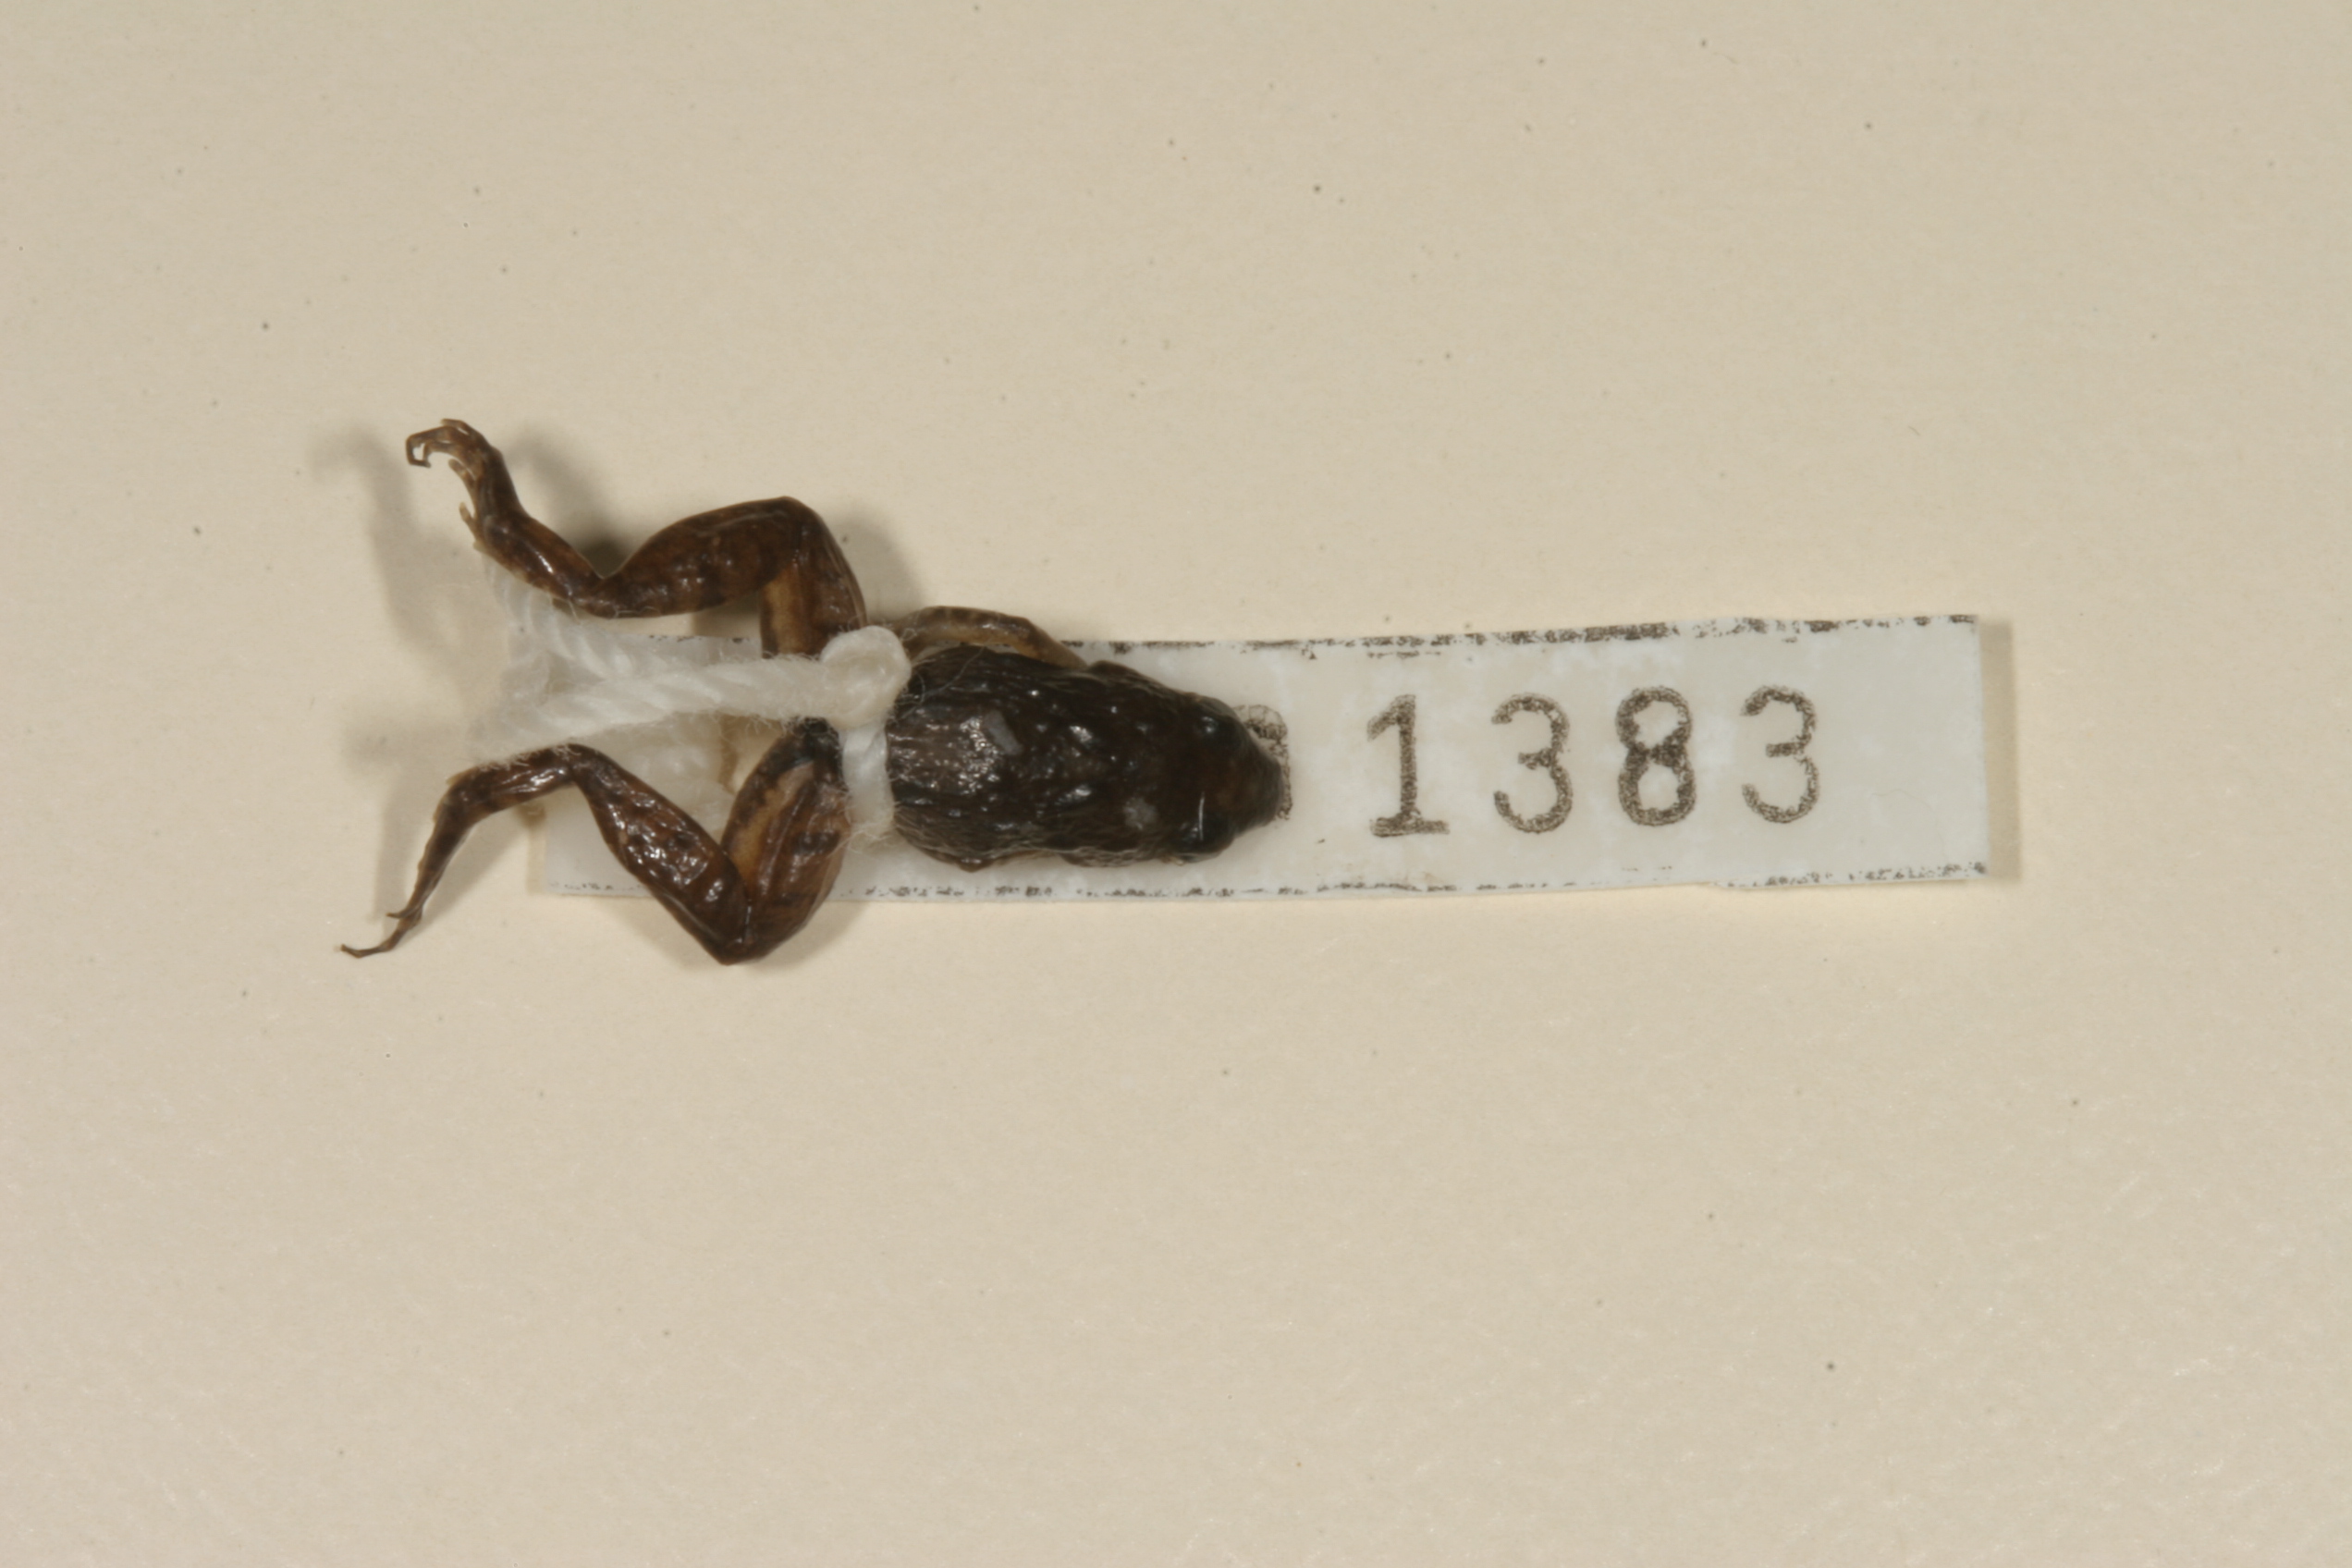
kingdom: Animalia
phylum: Chordata
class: Amphibia
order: Anura
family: Phrynobatrachidae
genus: Phrynobatrachus
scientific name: Phrynobatrachus mababiensis
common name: Dwarf puddle frog
